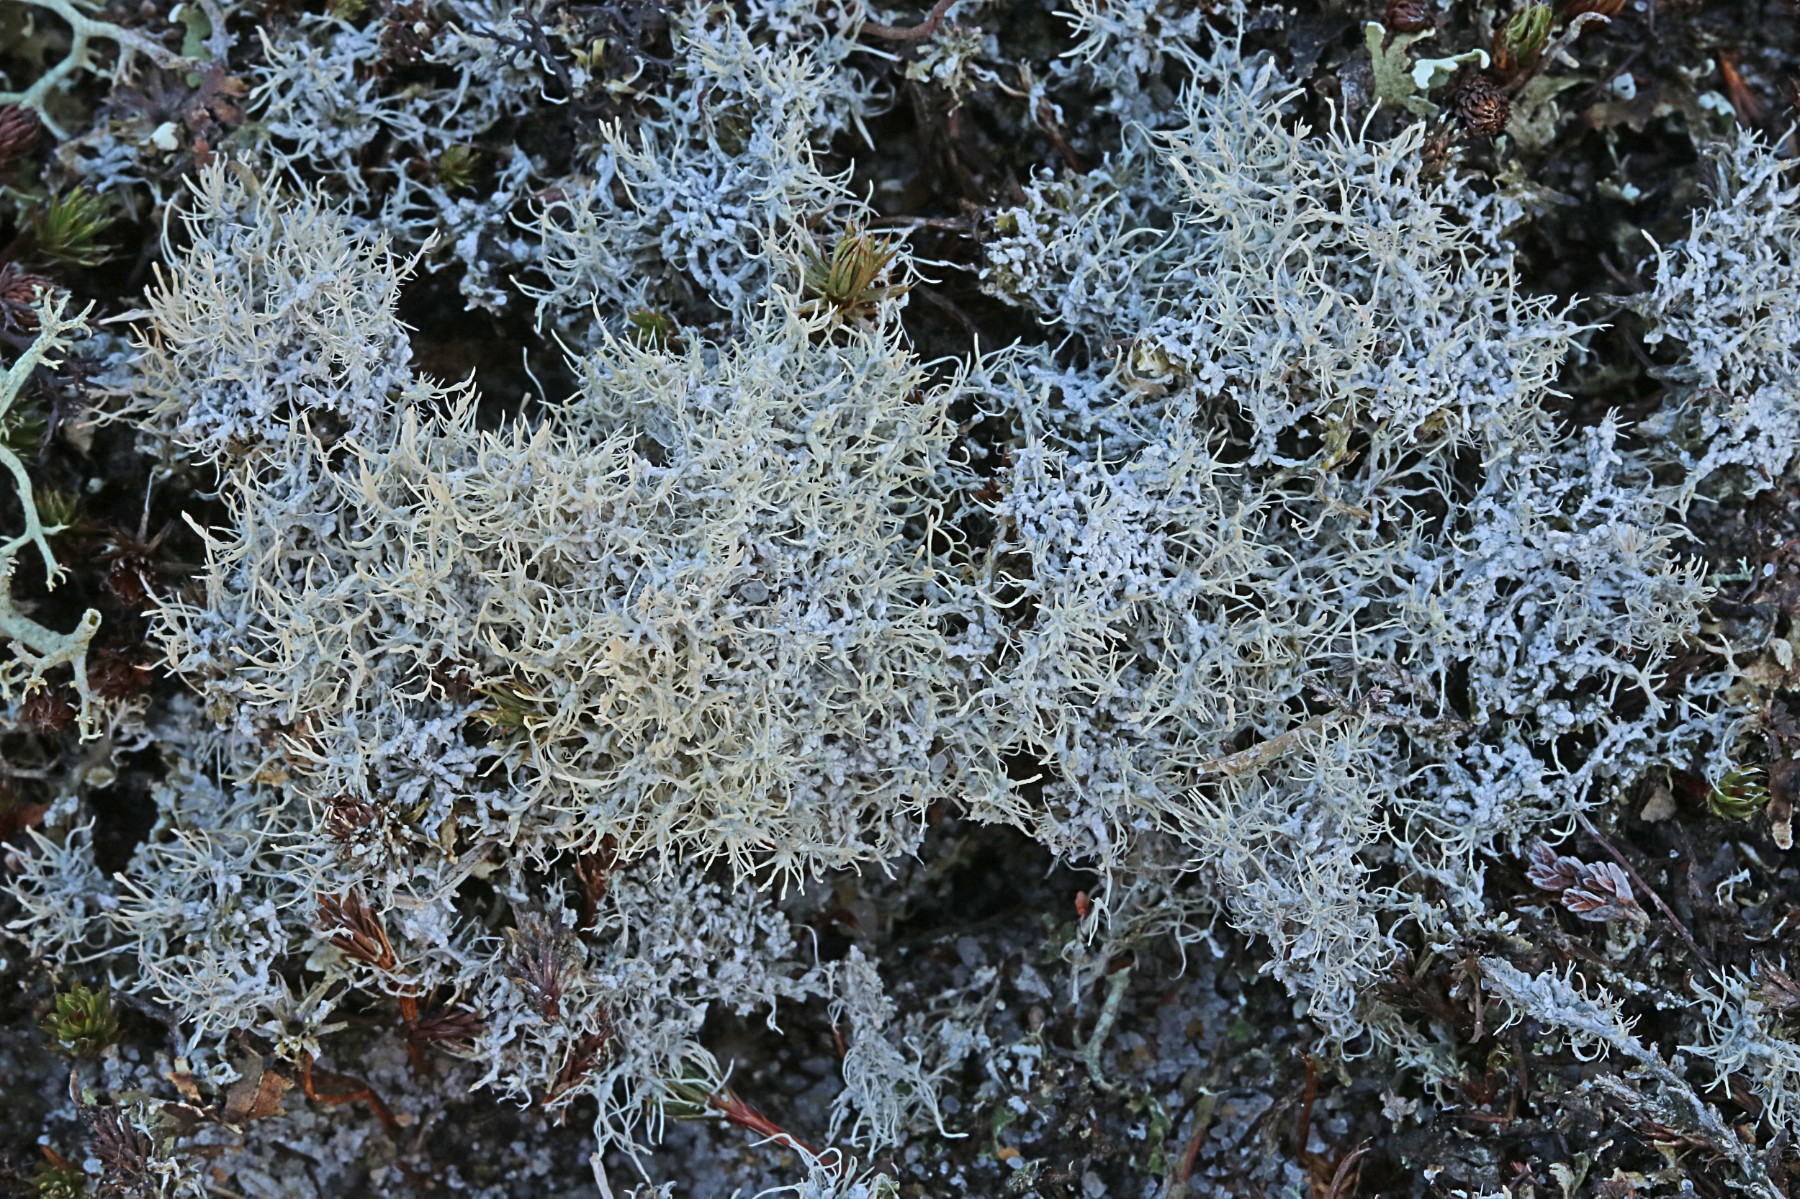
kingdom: Fungi
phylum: Ascomycota
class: Lecanoromycetes
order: Pertusariales
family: Ochrolechiaceae
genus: Ochrolechia
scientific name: Ochrolechia frigida
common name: fjeld-blegskivelav
